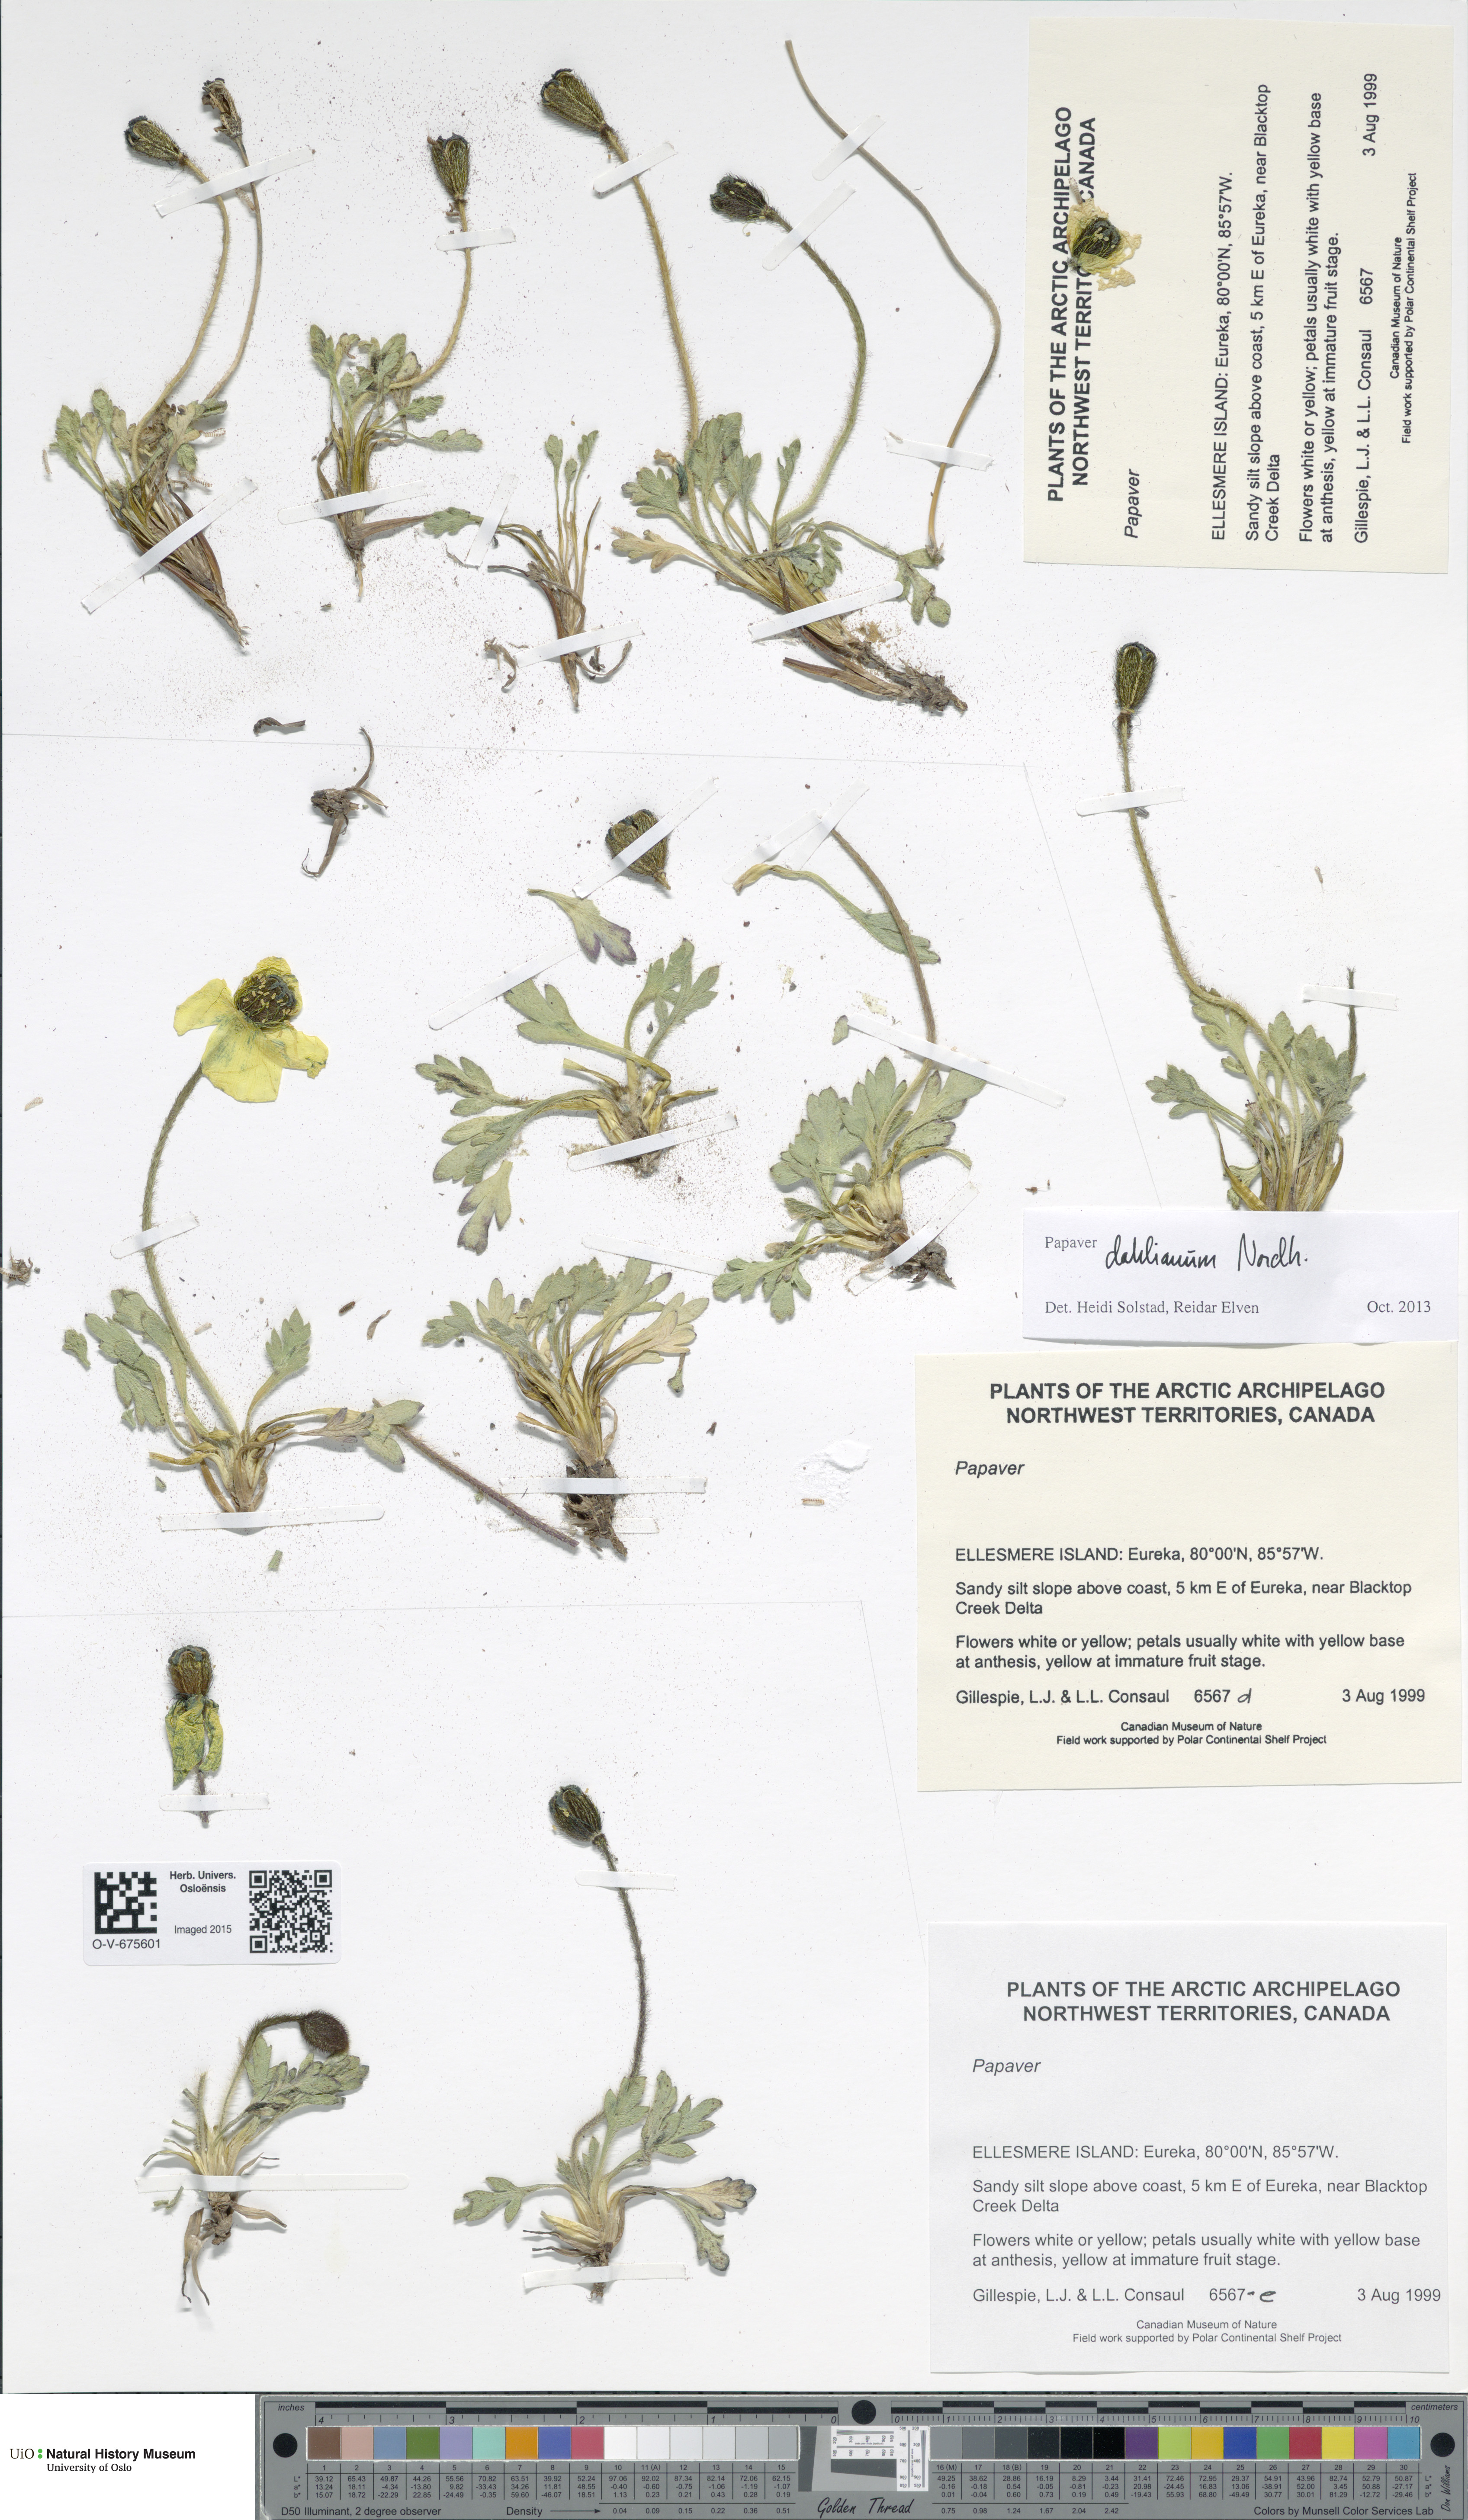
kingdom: Plantae
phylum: Tracheophyta
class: Magnoliopsida
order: Ranunculales
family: Papaveraceae
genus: Papaver
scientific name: Papaver radicatum
